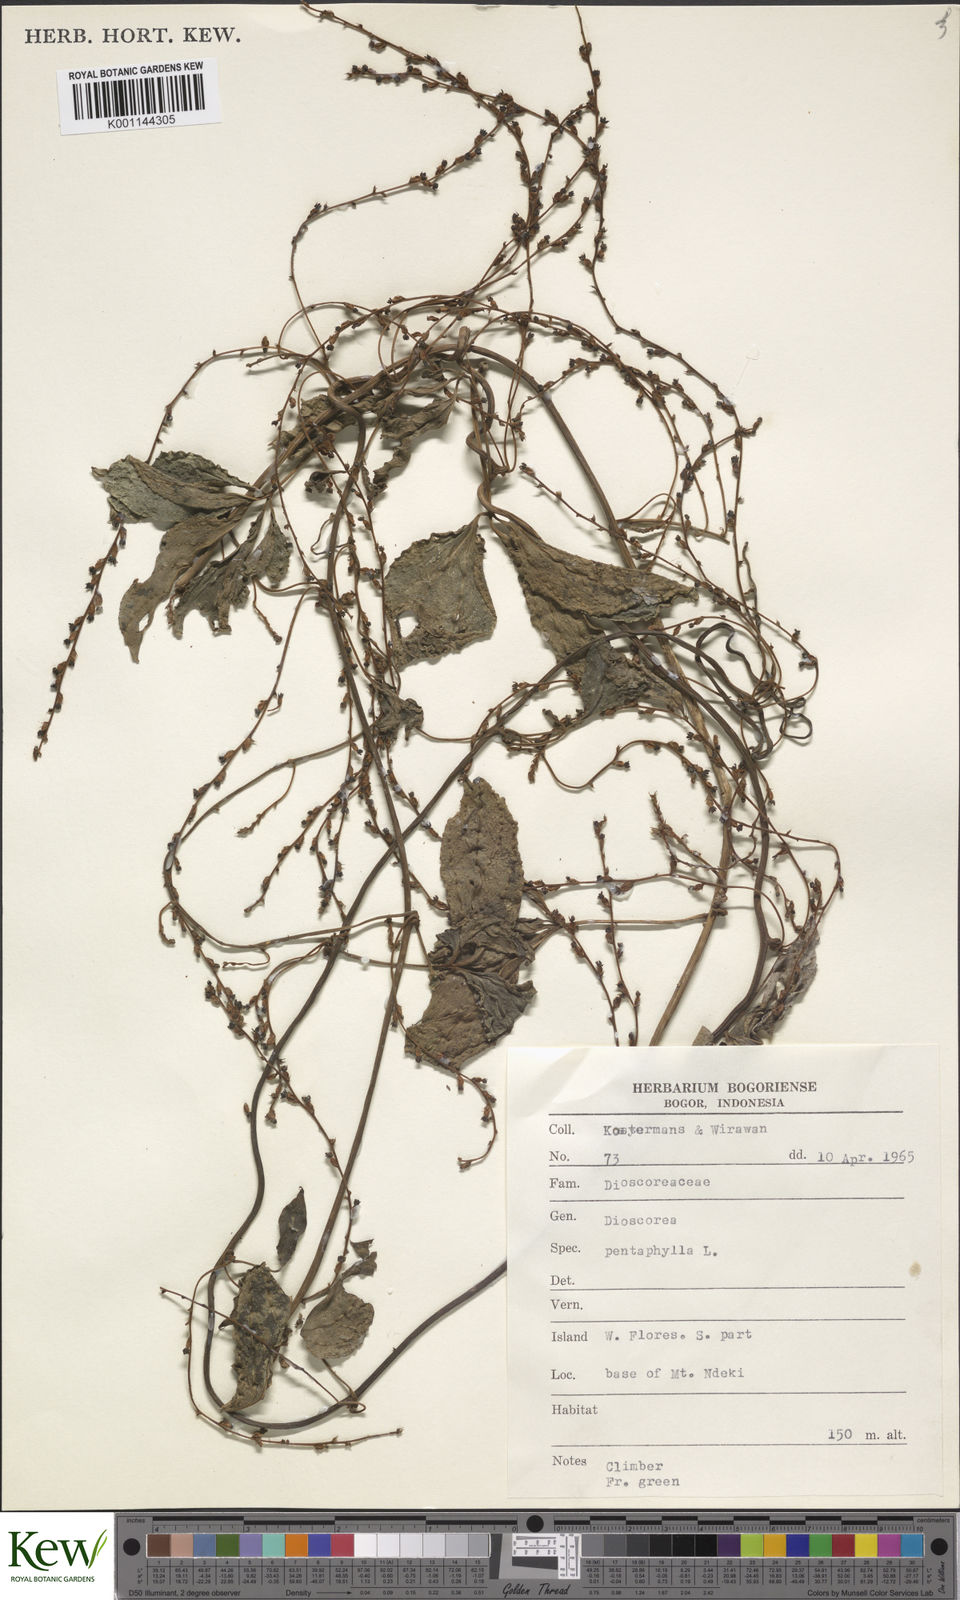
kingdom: Plantae
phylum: Tracheophyta
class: Liliopsida
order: Dioscoreales
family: Dioscoreaceae
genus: Dioscorea
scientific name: Dioscorea pentaphylla
